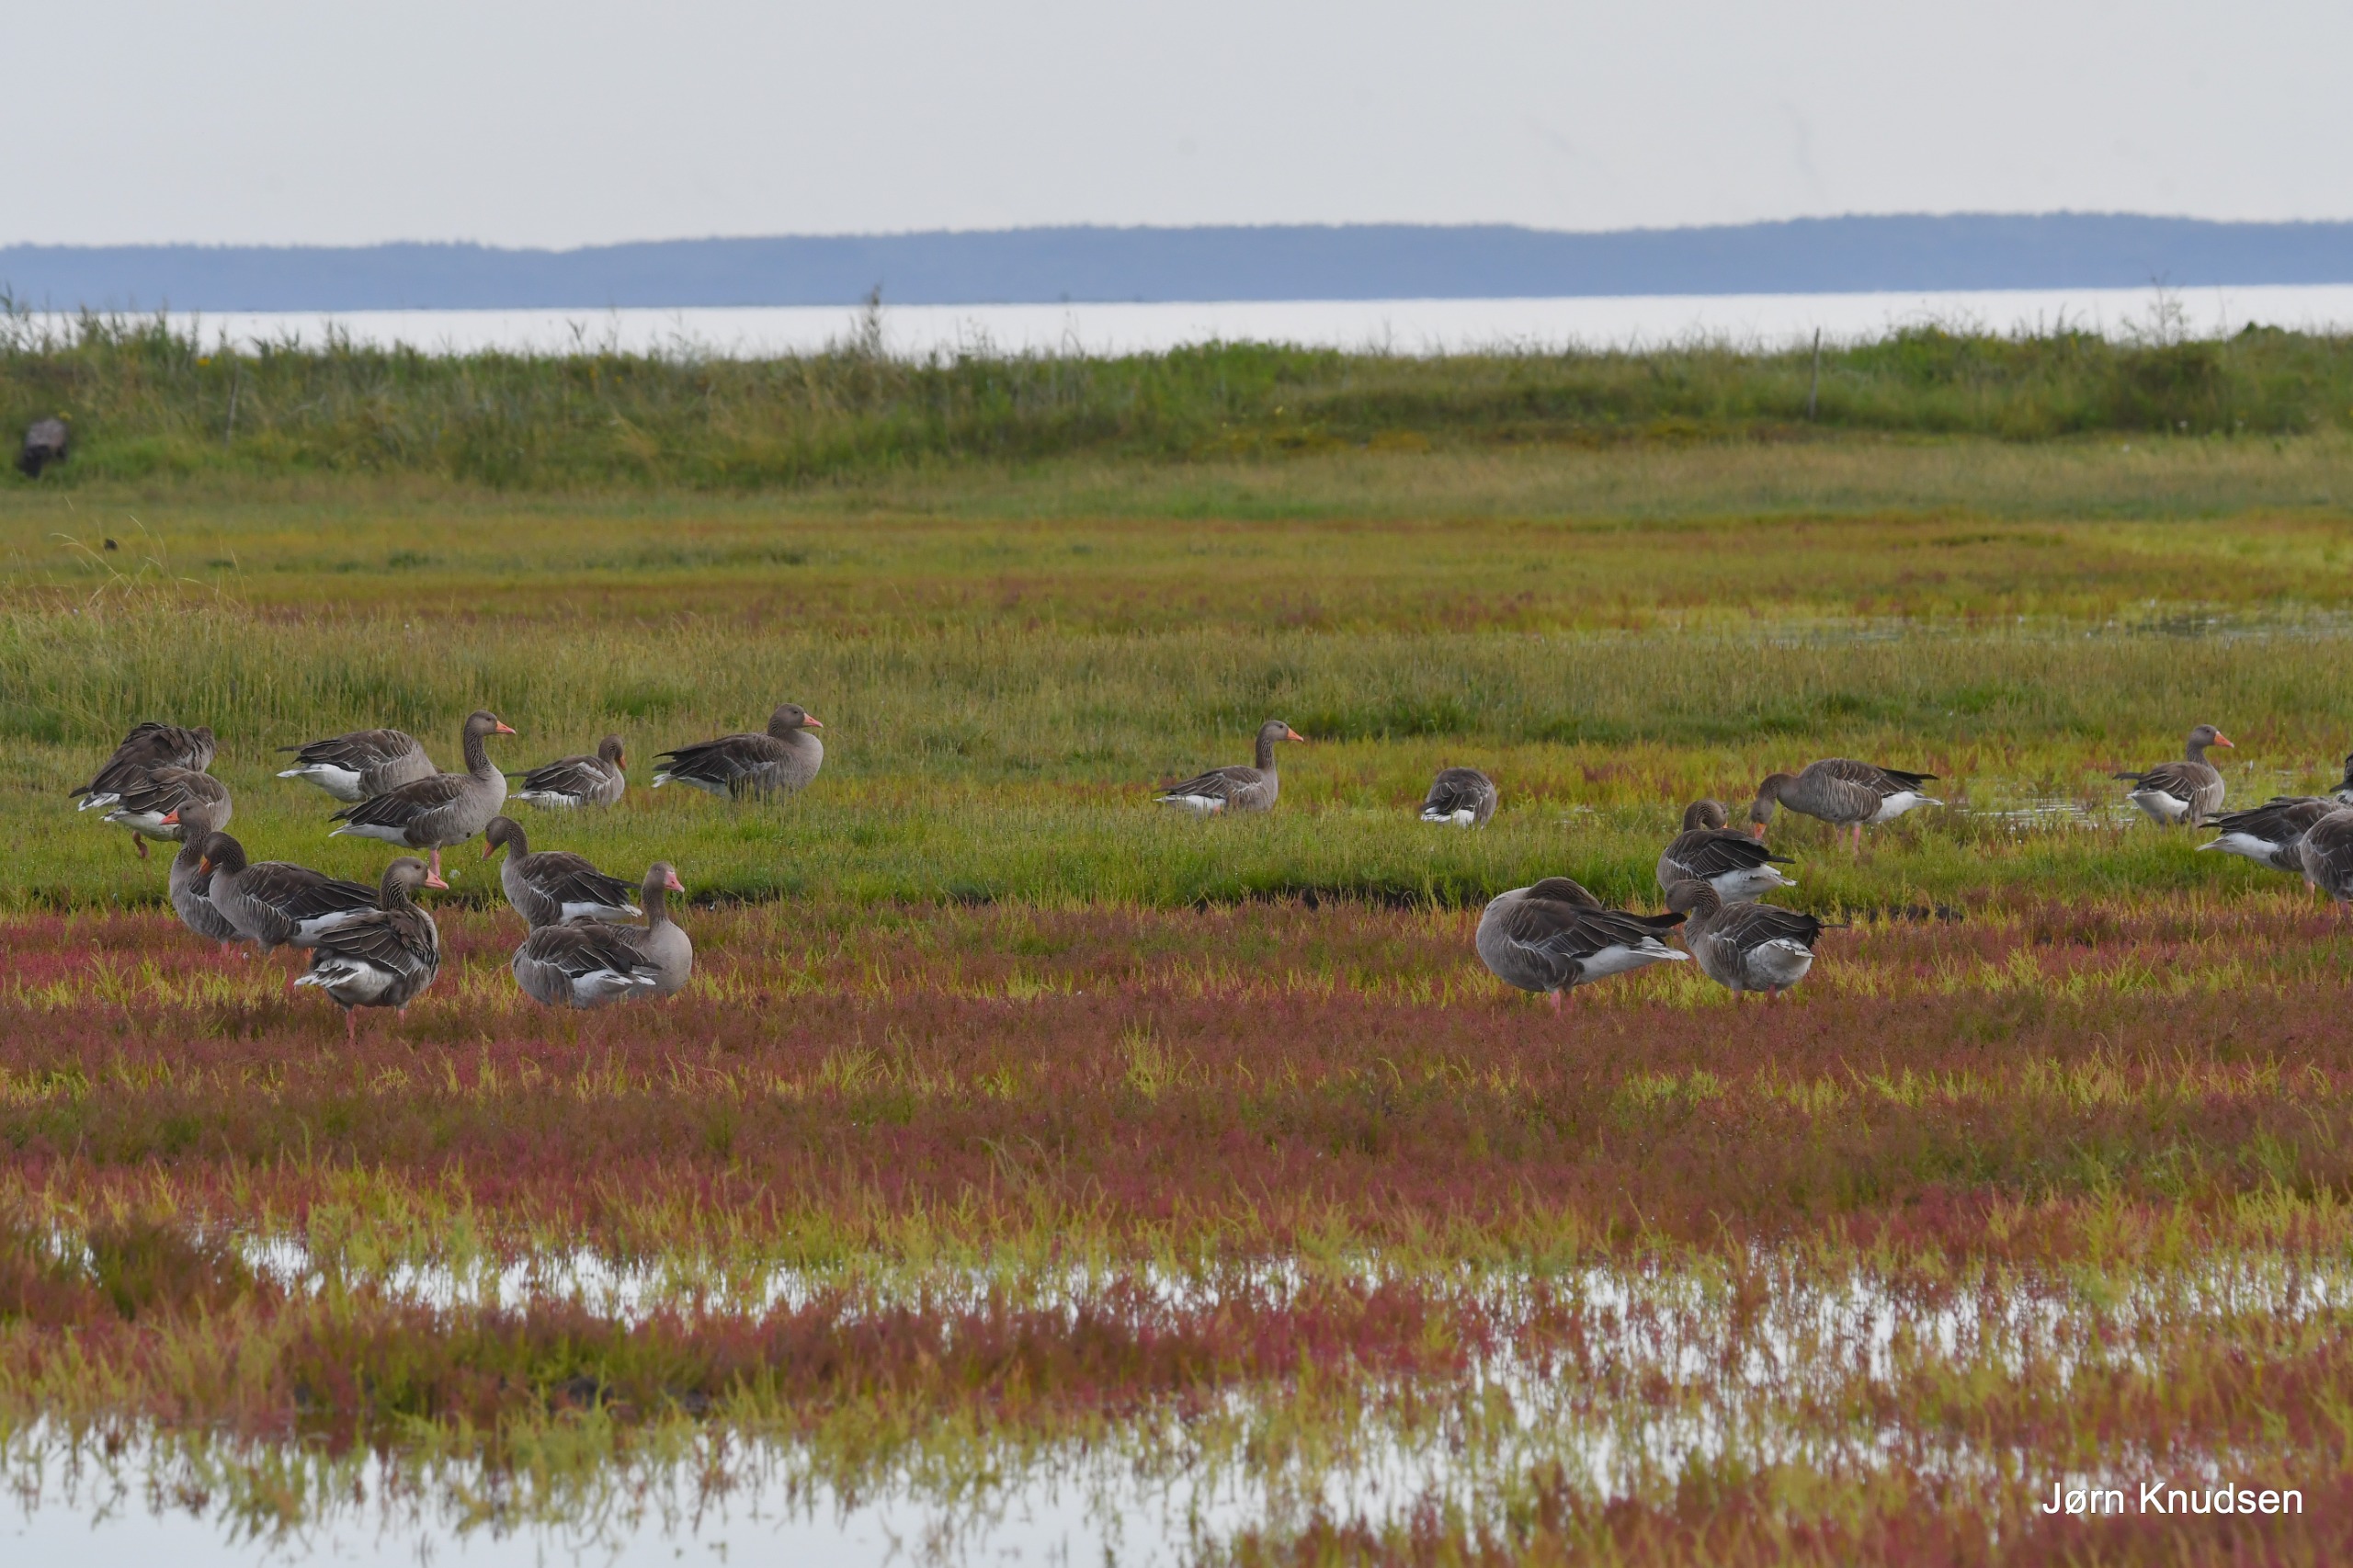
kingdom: Animalia
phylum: Chordata
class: Aves
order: Anseriformes
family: Anatidae
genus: Anser
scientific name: Anser anser
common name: Grågås
